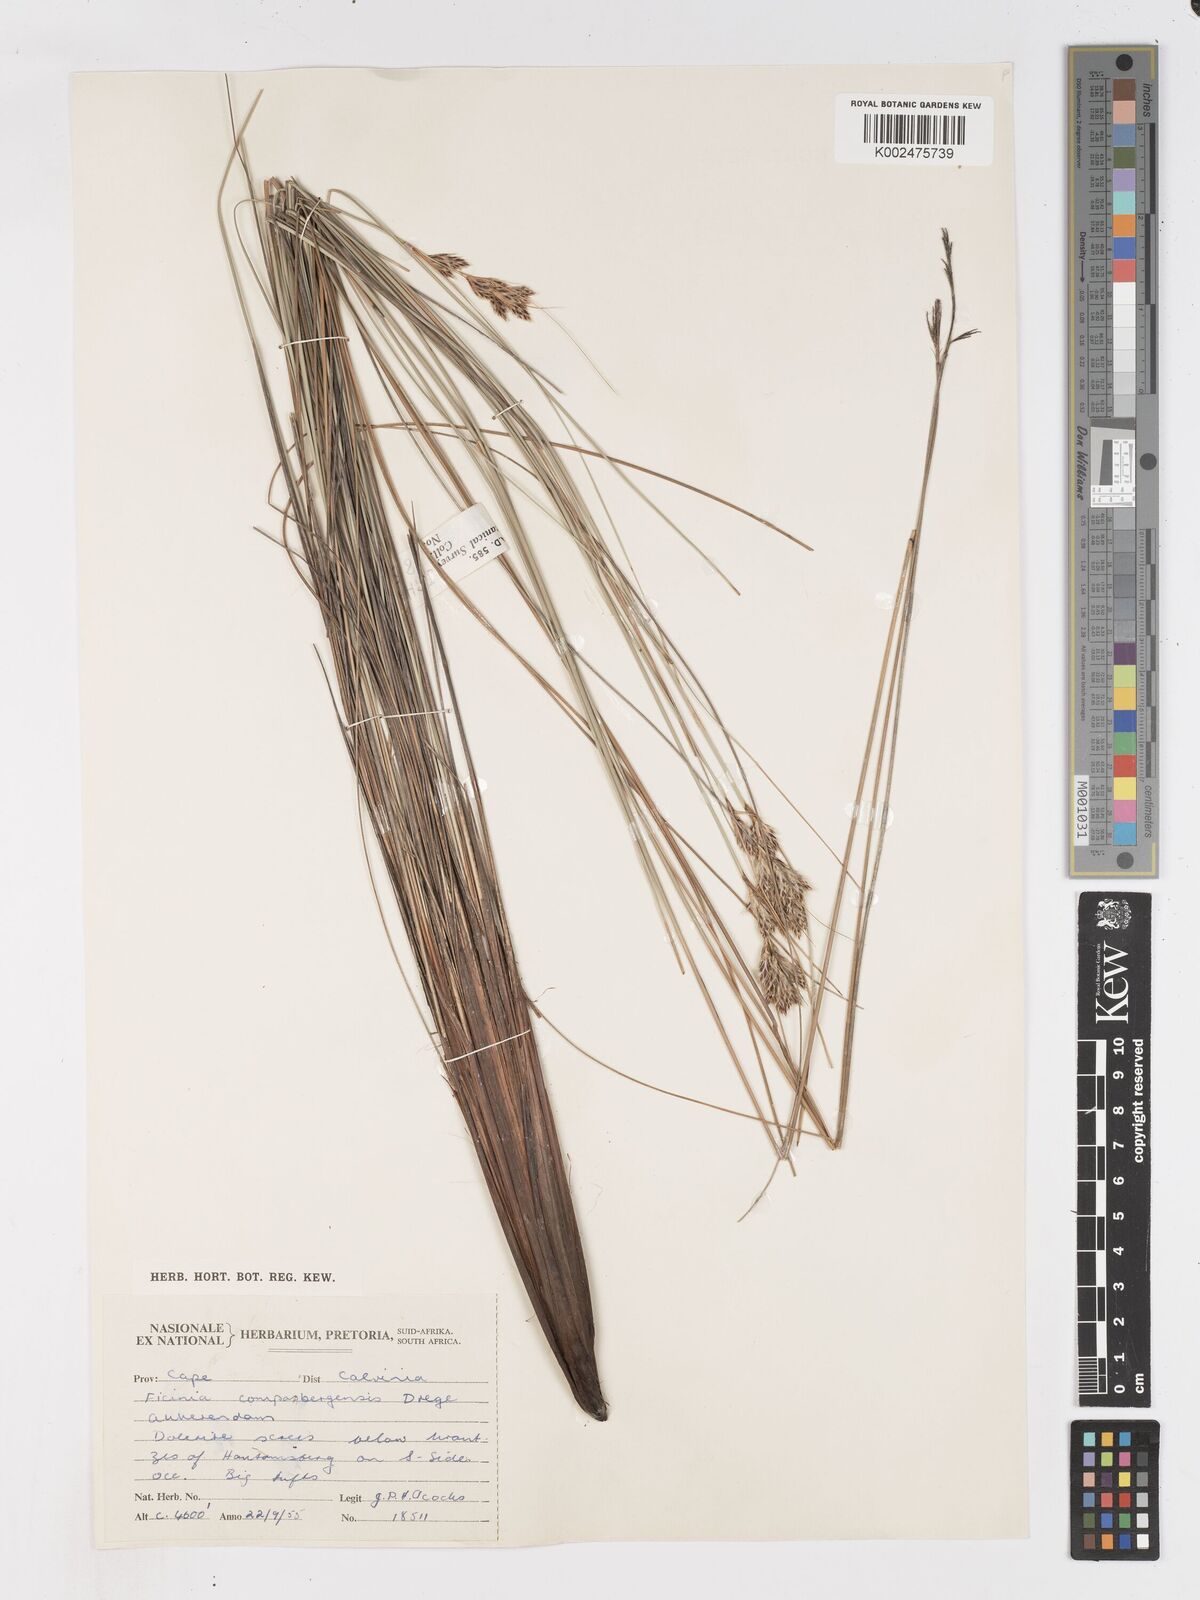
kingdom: Plantae
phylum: Tracheophyta
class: Liliopsida
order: Poales
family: Cyperaceae
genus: Ficinia
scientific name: Ficinia compasbergensis
